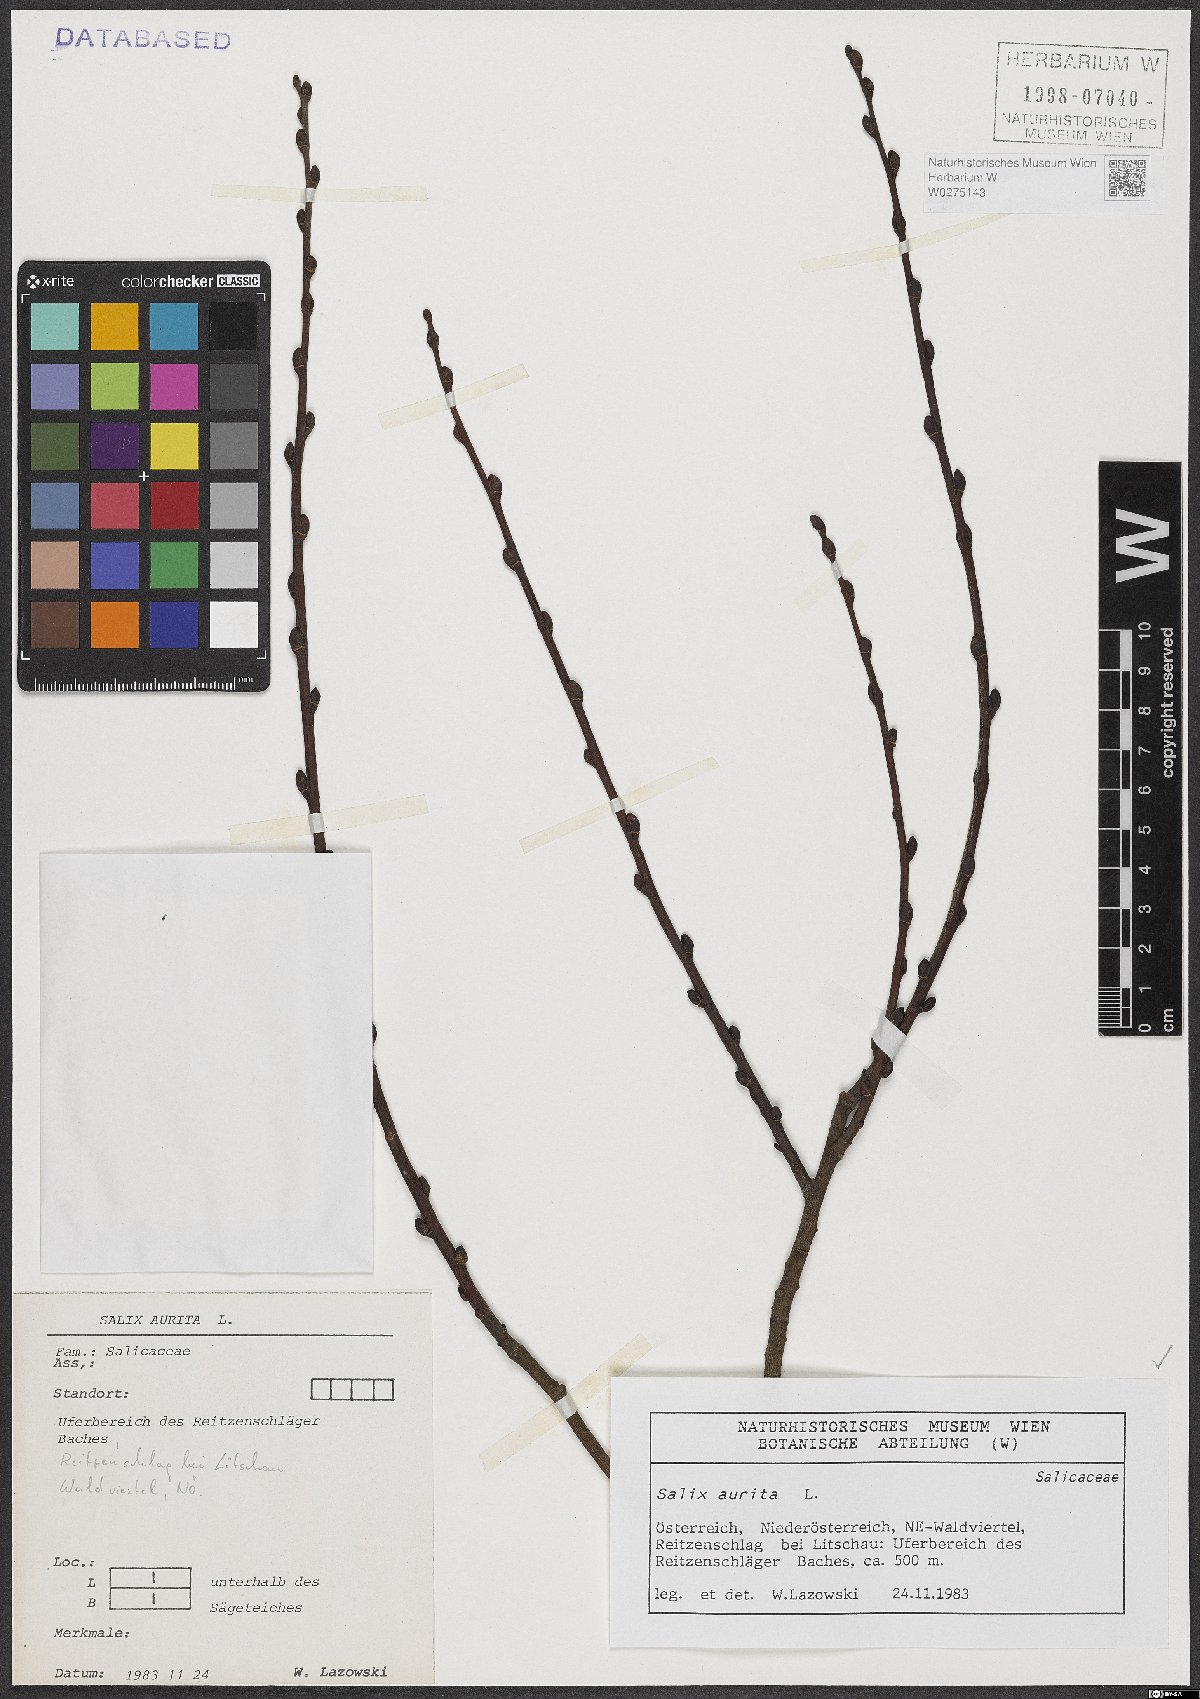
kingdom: Plantae
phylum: Tracheophyta
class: Magnoliopsida
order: Malpighiales
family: Salicaceae
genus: Salix
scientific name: Salix aurita
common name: Eared willow
